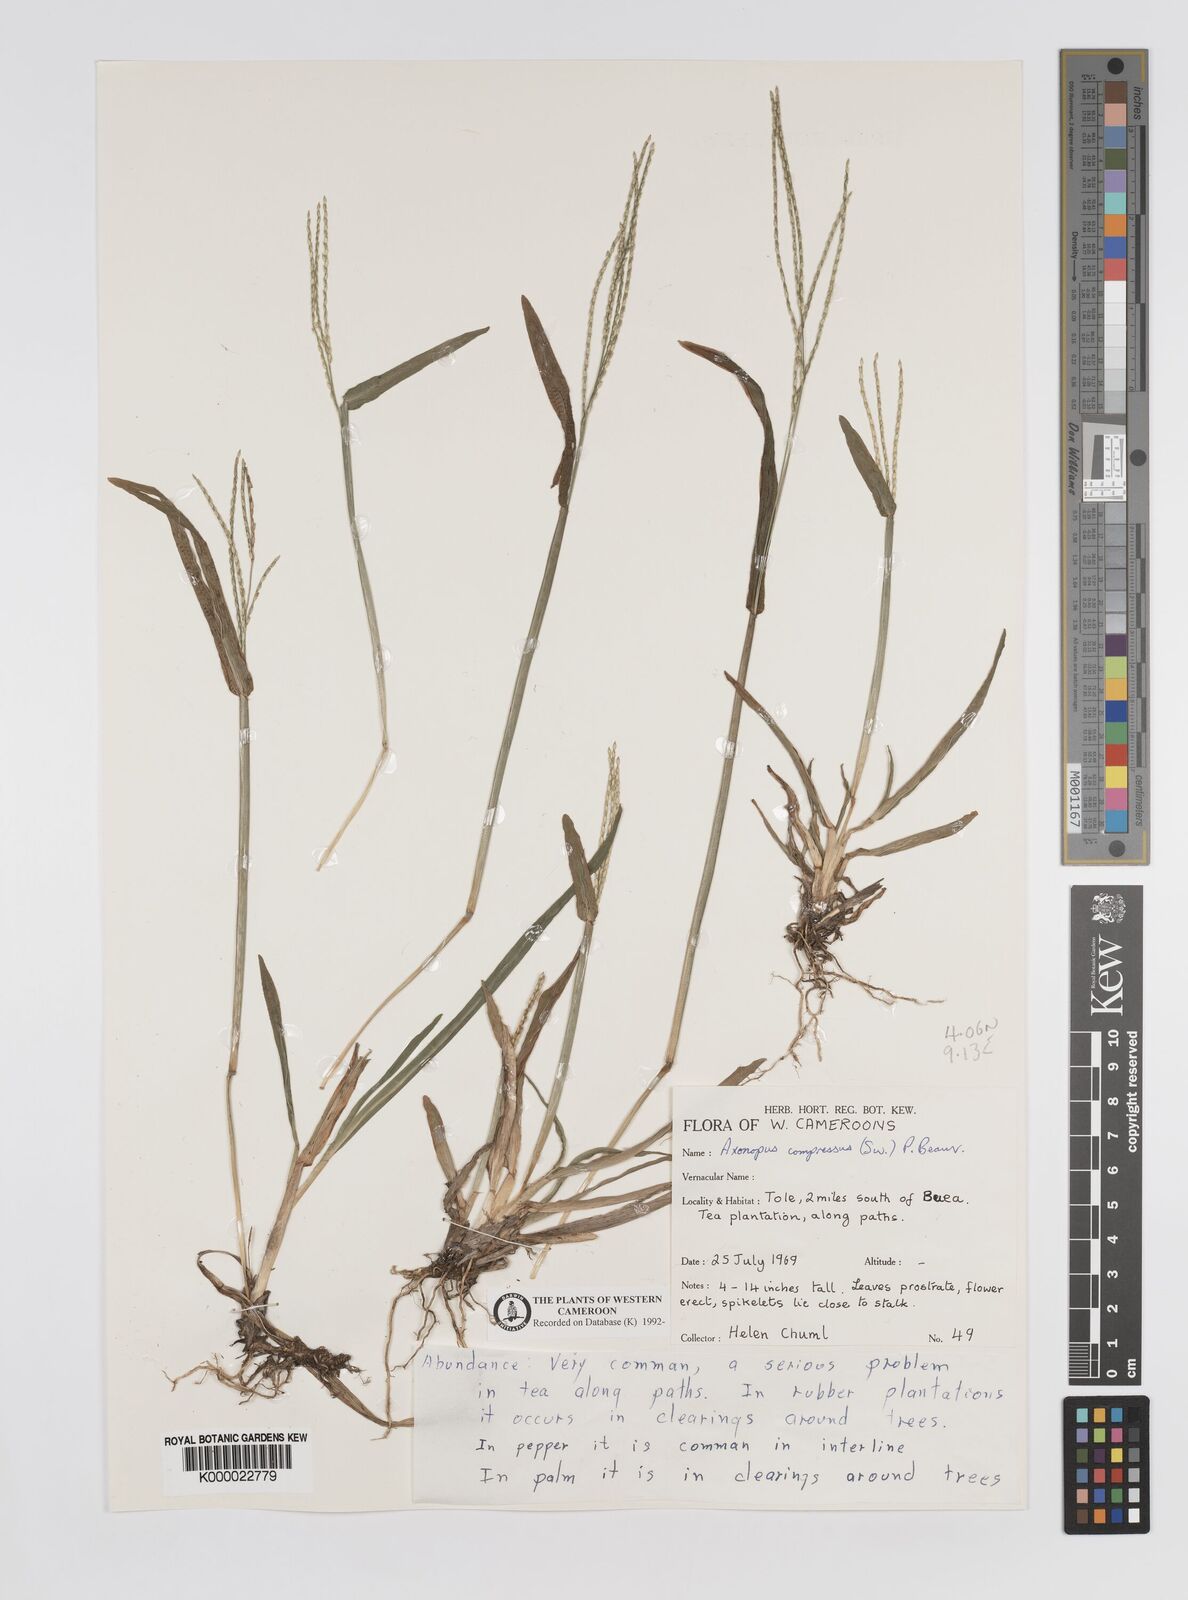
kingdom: Plantae
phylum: Tracheophyta
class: Liliopsida
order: Poales
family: Poaceae
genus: Axonopus
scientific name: Axonopus compressus
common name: American carpet grass
